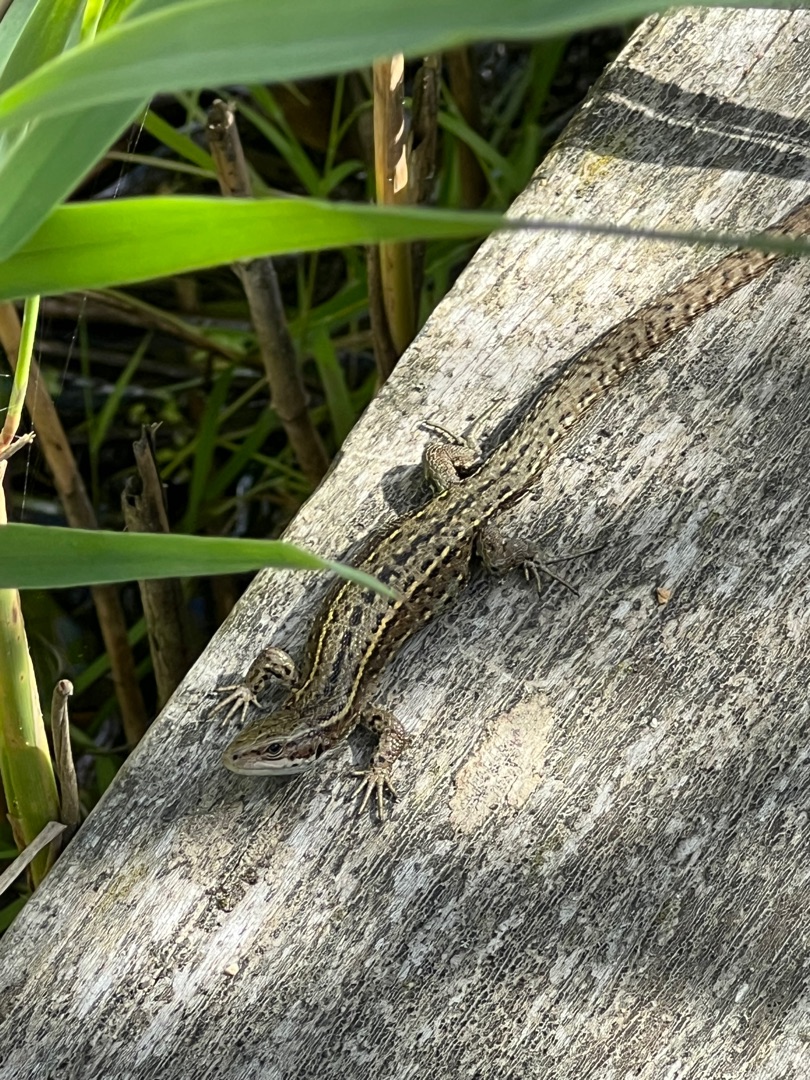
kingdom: Animalia
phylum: Chordata
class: Squamata
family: Lacertidae
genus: Zootoca
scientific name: Zootoca vivipara
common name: Skovfirben
